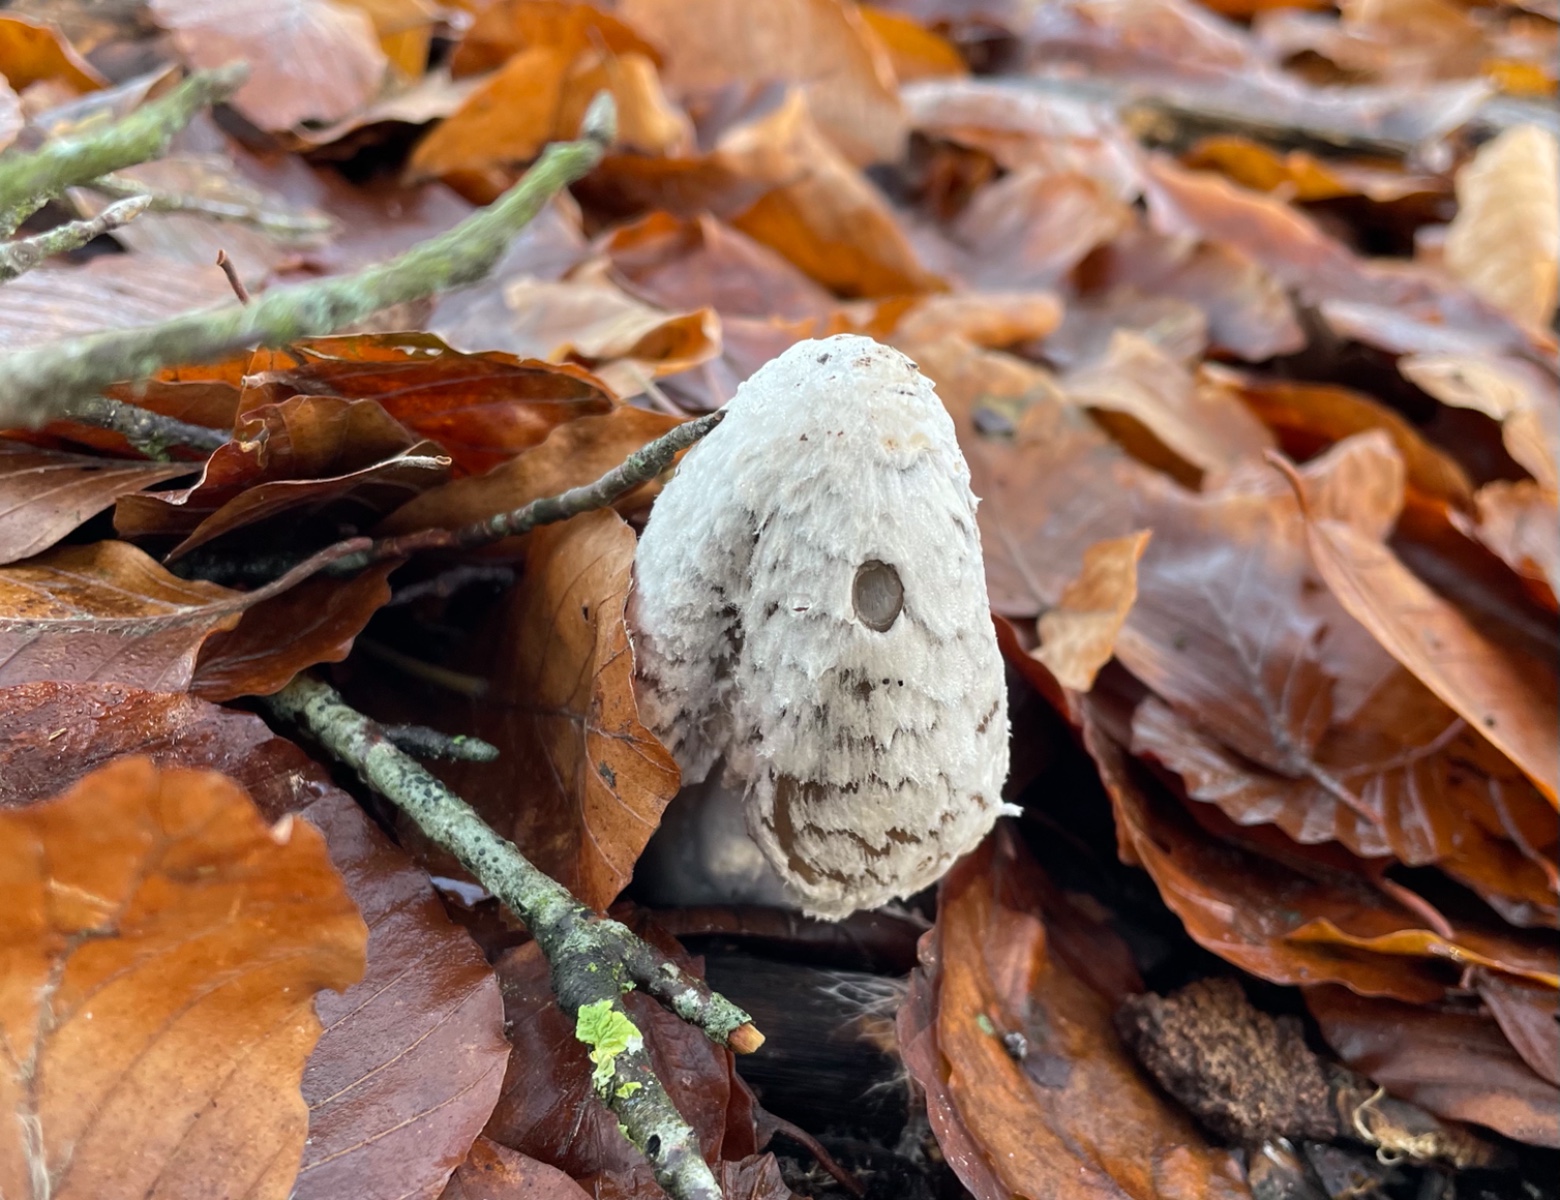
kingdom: Fungi
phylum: Basidiomycota
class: Agaricomycetes
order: Agaricales
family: Psathyrellaceae
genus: Coprinopsis
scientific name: Coprinopsis picacea
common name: skade-blækhat
